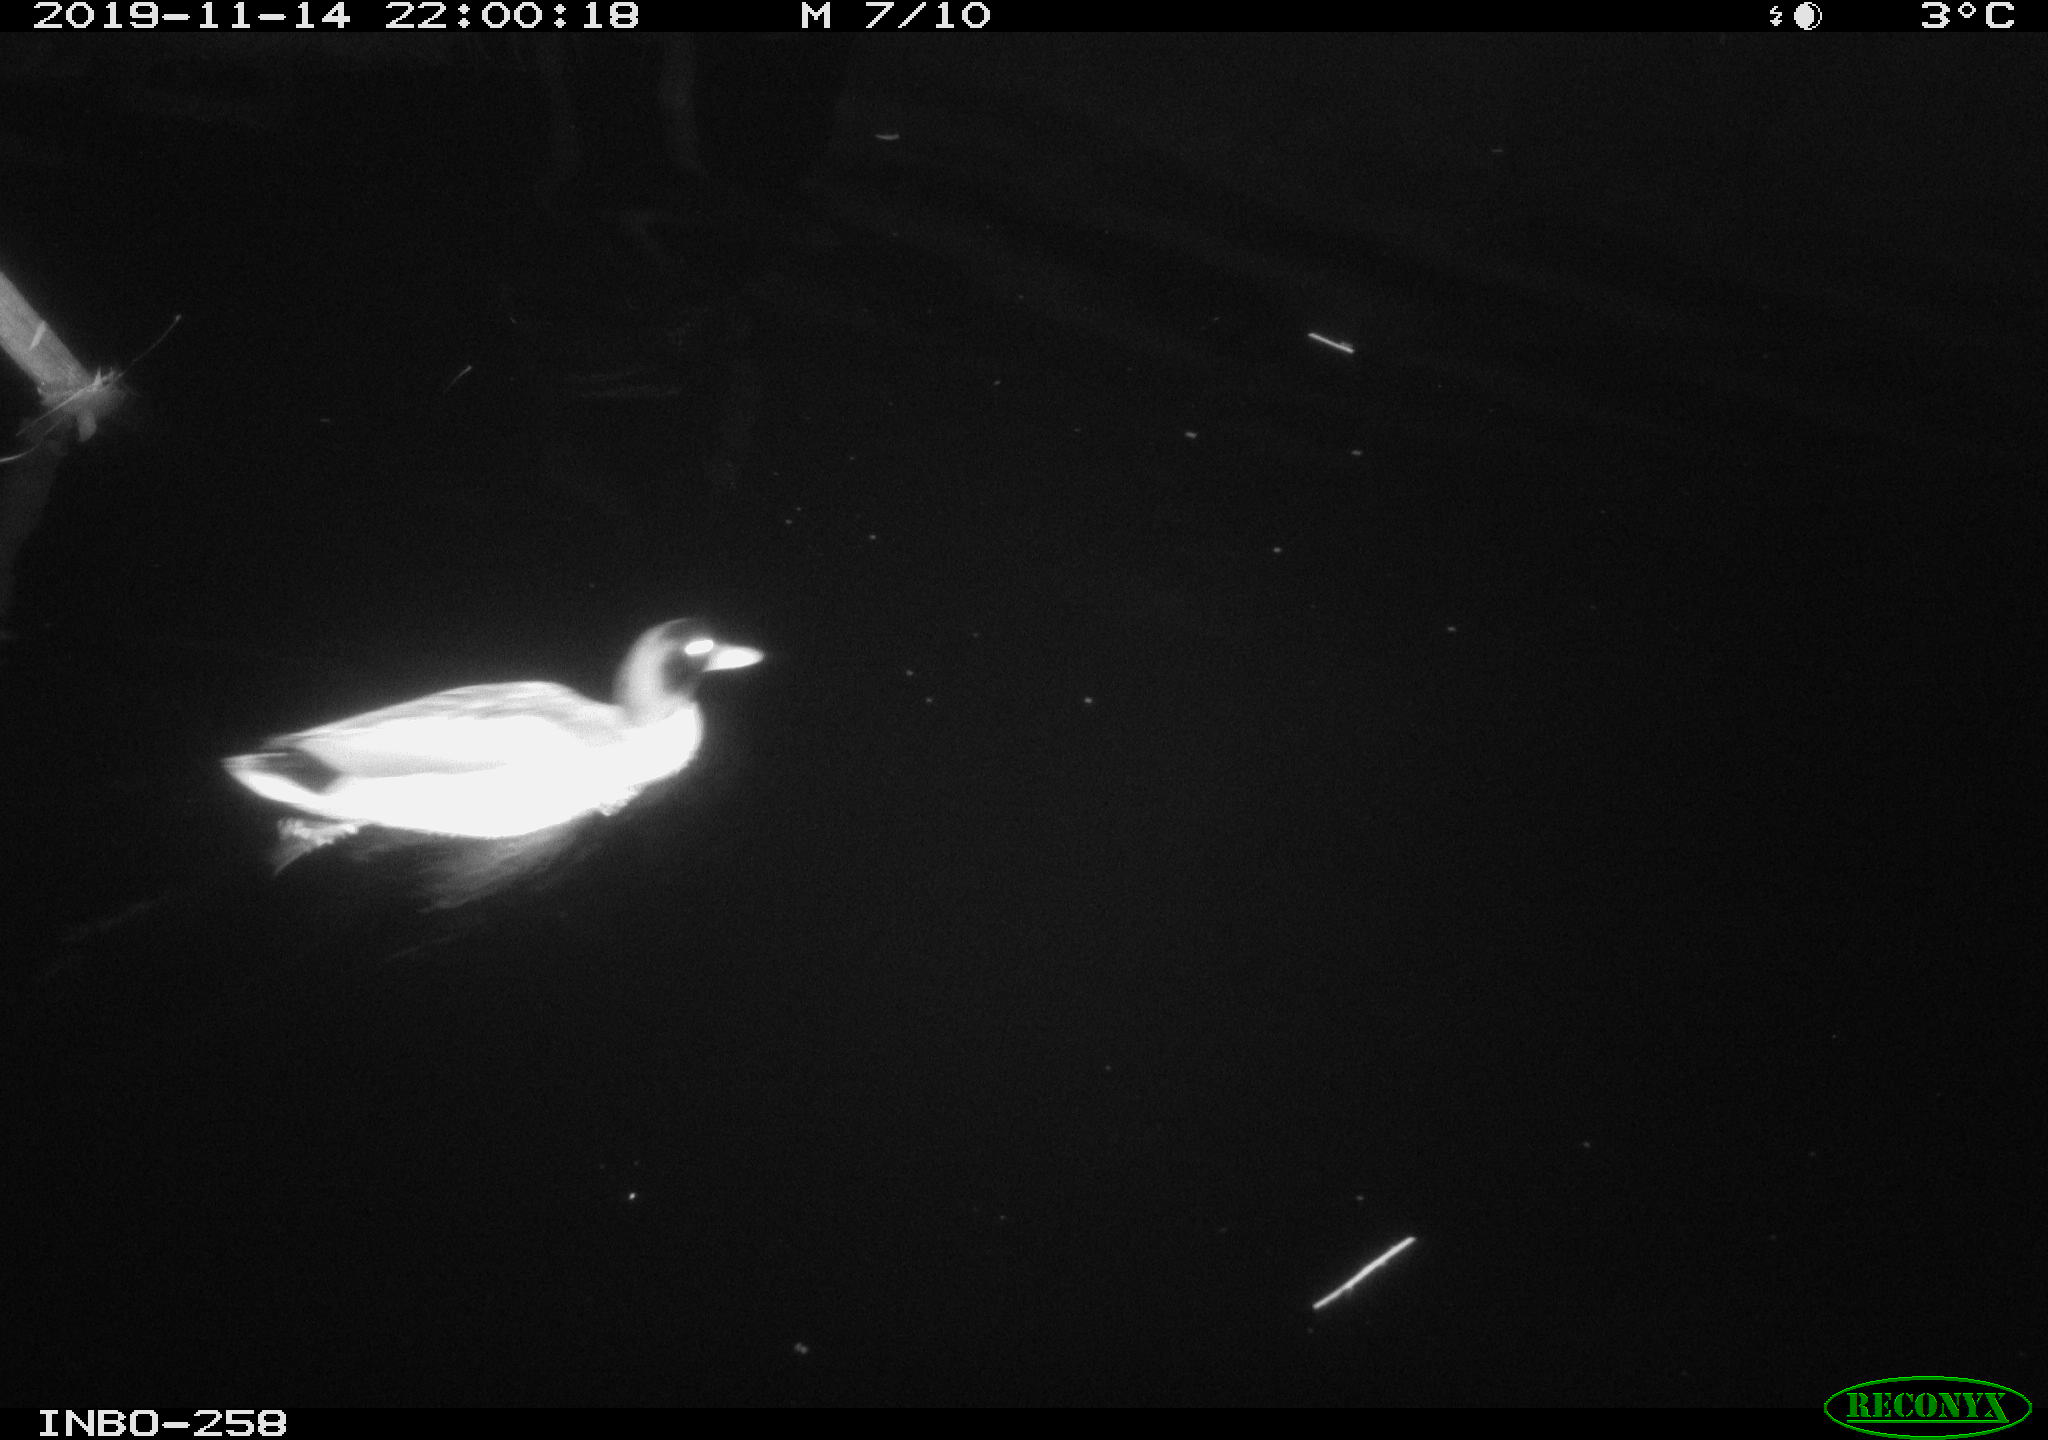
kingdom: Animalia
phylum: Chordata
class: Aves
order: Anseriformes
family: Anatidae
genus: Anas
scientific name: Anas platyrhynchos
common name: Mallard
